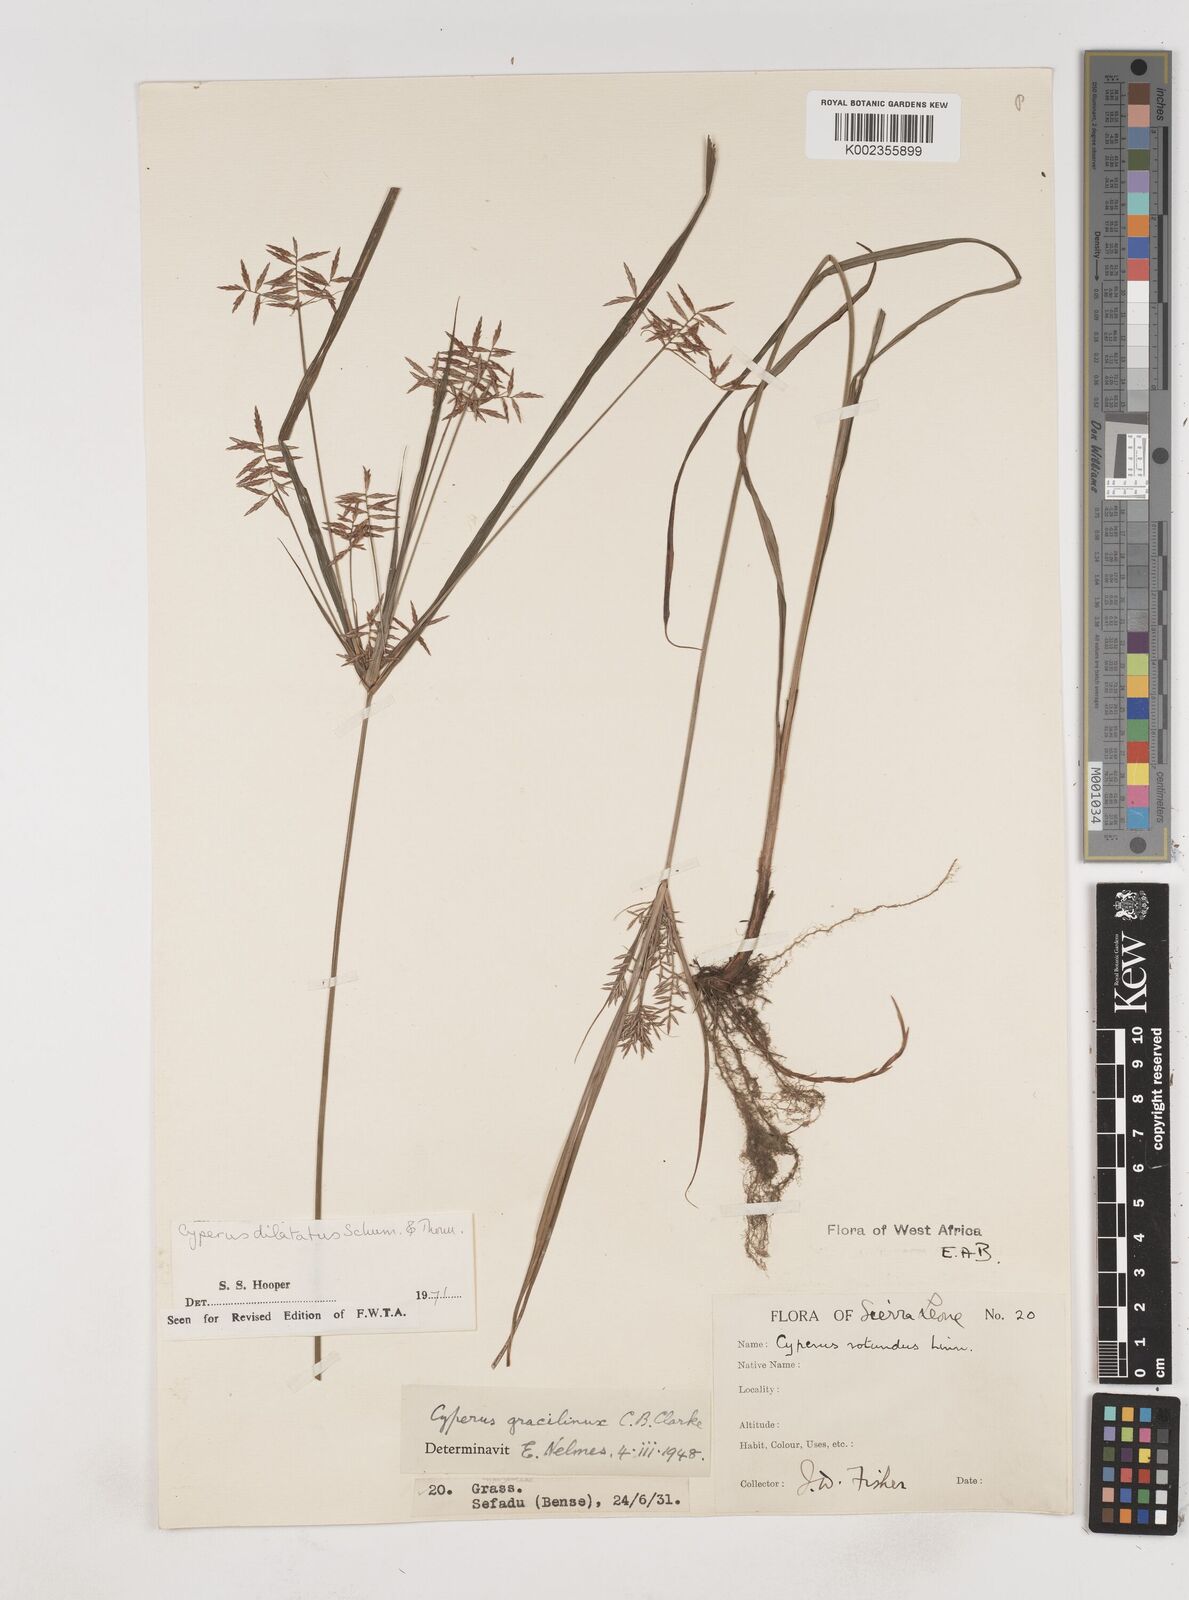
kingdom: Plantae
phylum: Tracheophyta
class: Liliopsida
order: Poales
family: Cyperaceae
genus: Cyperus
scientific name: Cyperus dilatatus
